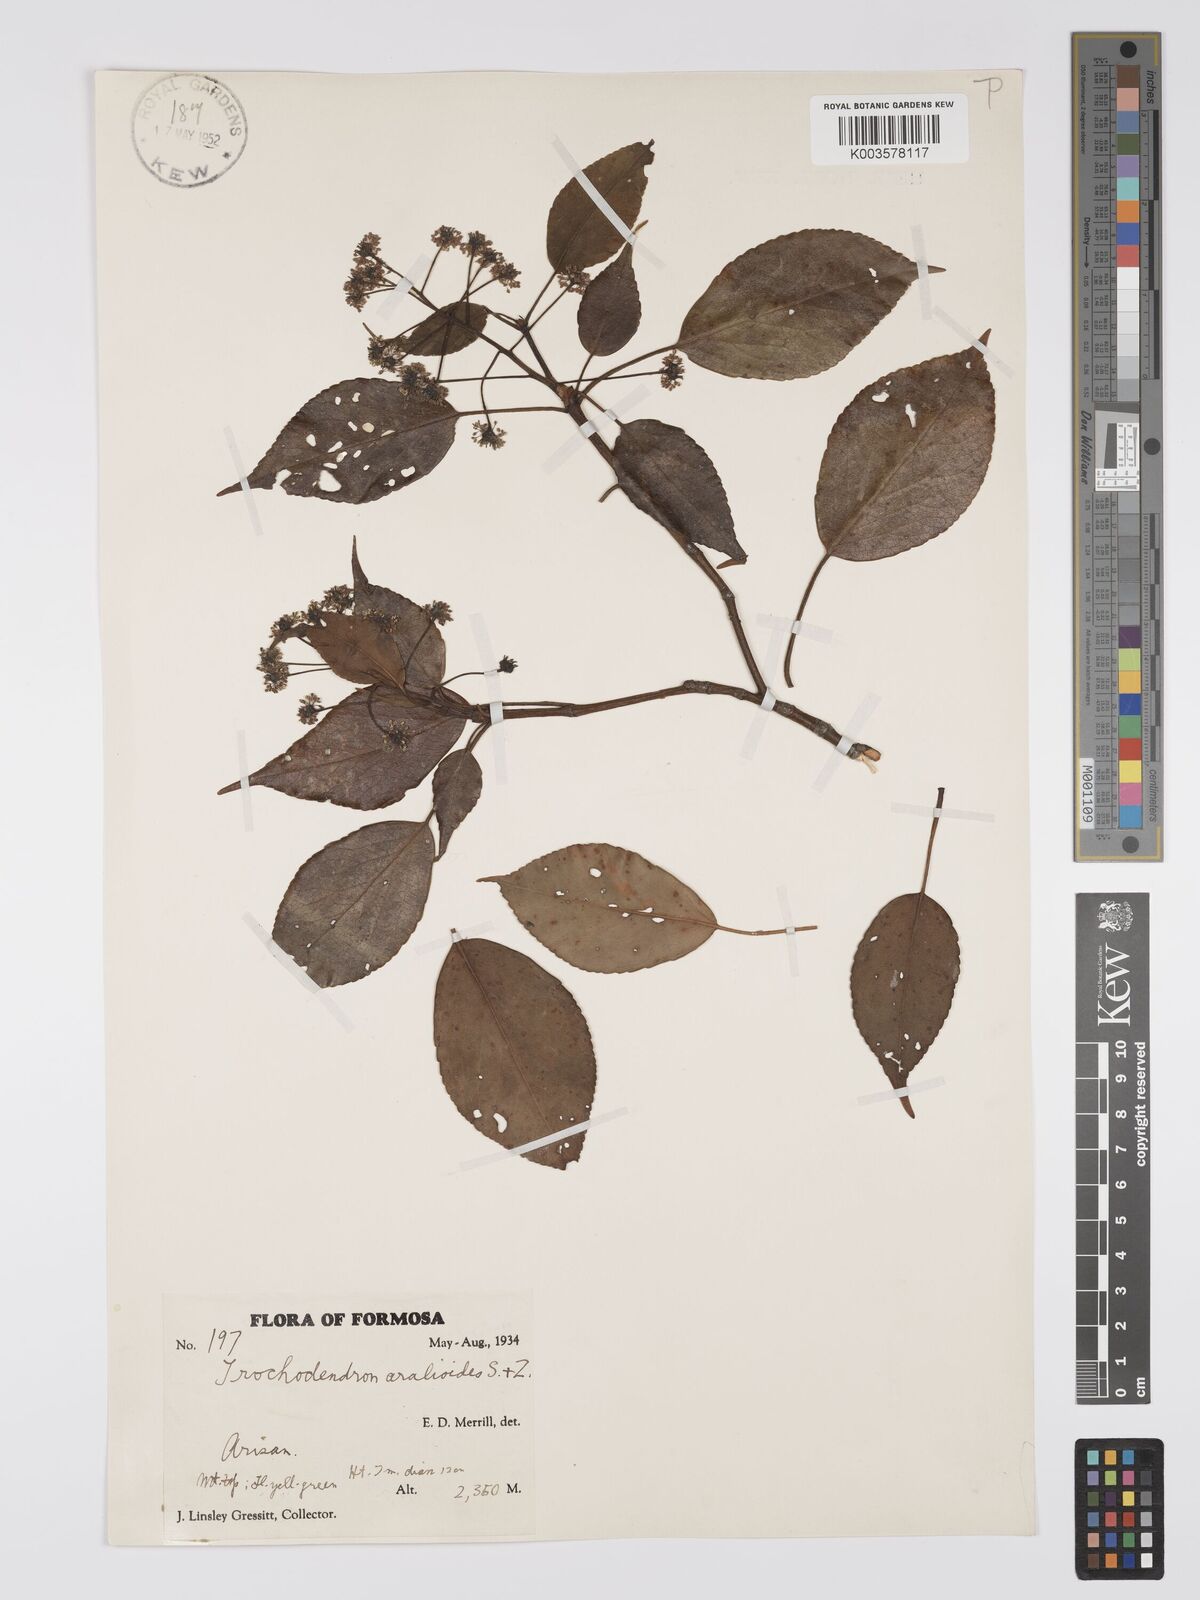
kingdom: Plantae
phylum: Tracheophyta
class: Magnoliopsida
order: Trochodendrales
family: Trochodendraceae
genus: Trochodendron
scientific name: Trochodendron
